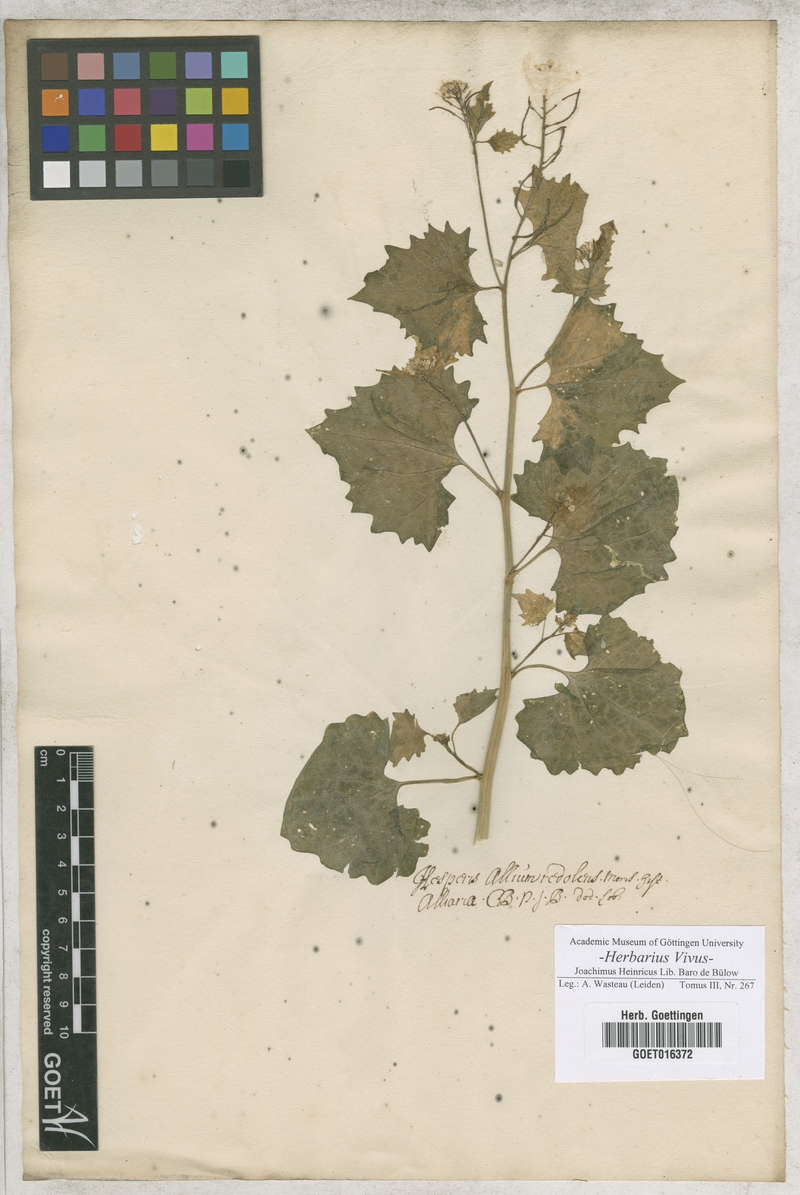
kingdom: Plantae
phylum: Tracheophyta
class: Magnoliopsida
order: Brassicales
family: Brassicaceae
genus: Alliaria
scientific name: Alliaria petiolata
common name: Garlic mustard
